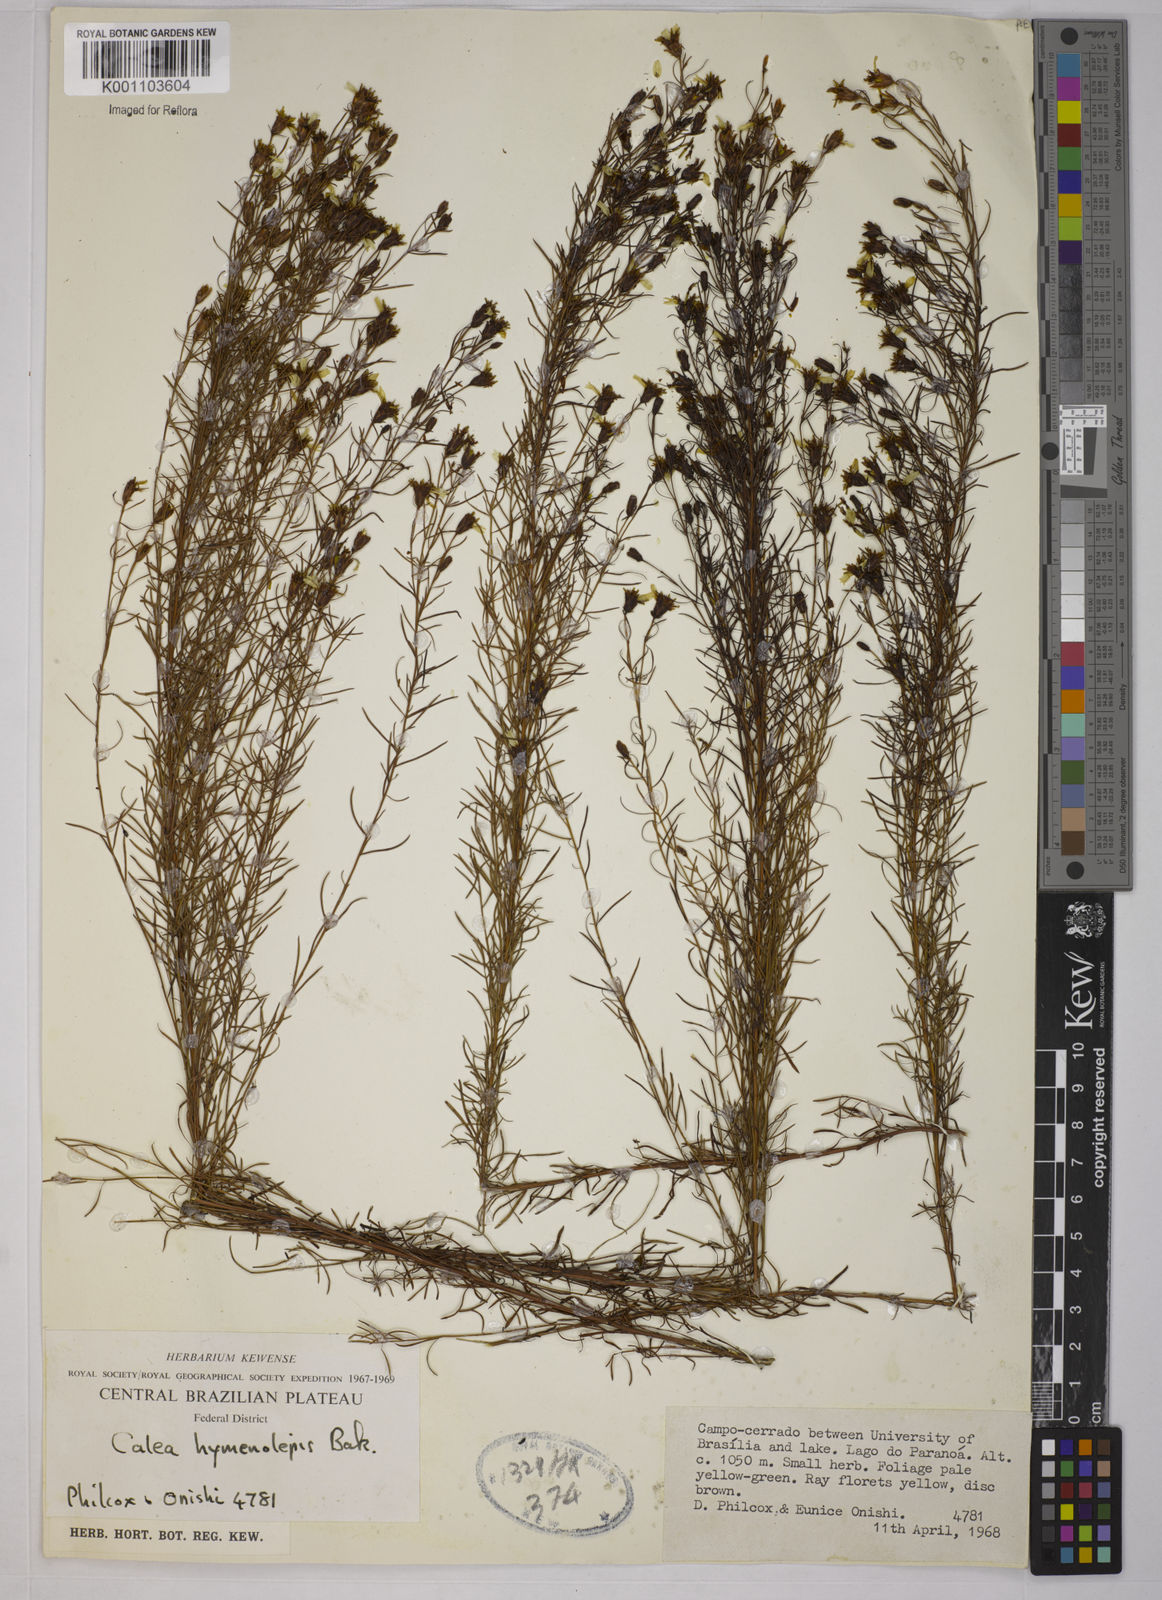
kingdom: Plantae
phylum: Tracheophyta
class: Magnoliopsida
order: Asterales
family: Asteraceae
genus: Calea
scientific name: Calea hymenolepis
